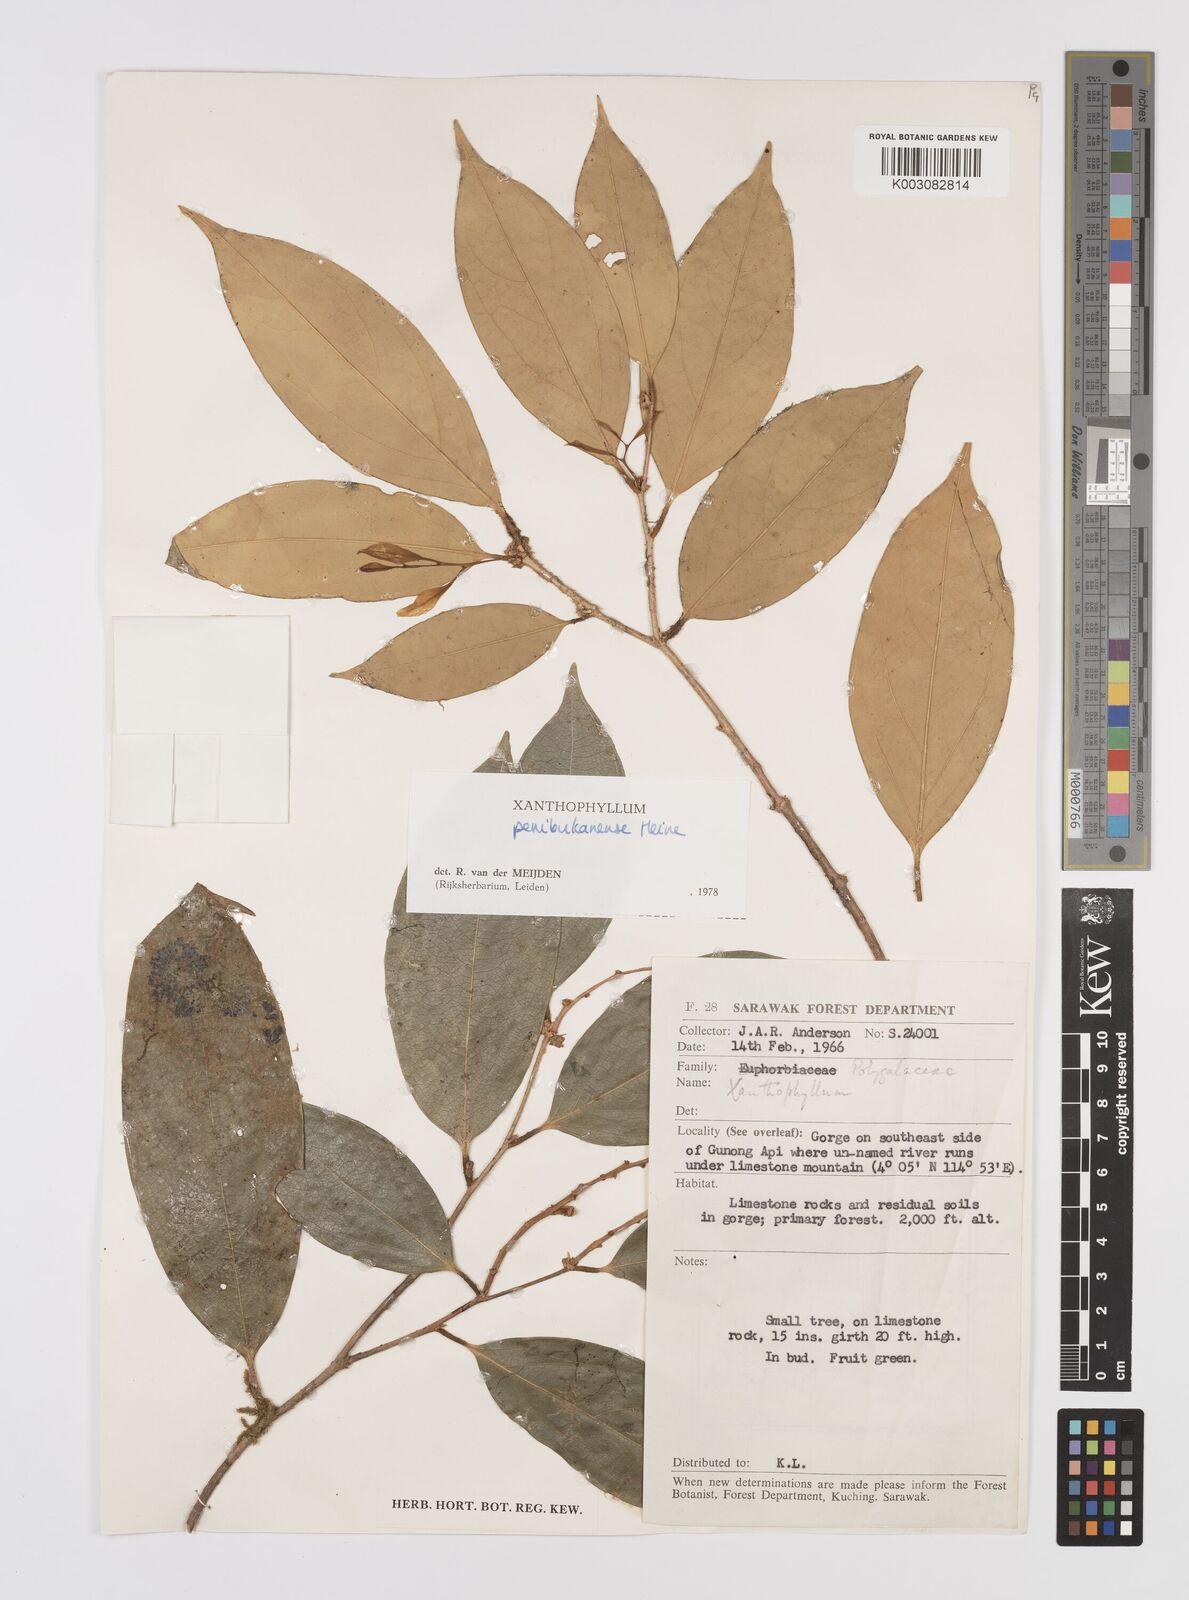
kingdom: Plantae
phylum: Tracheophyta
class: Magnoliopsida
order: Fabales
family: Polygalaceae
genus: Xanthophyllum
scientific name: Xanthophyllum penibukanense
